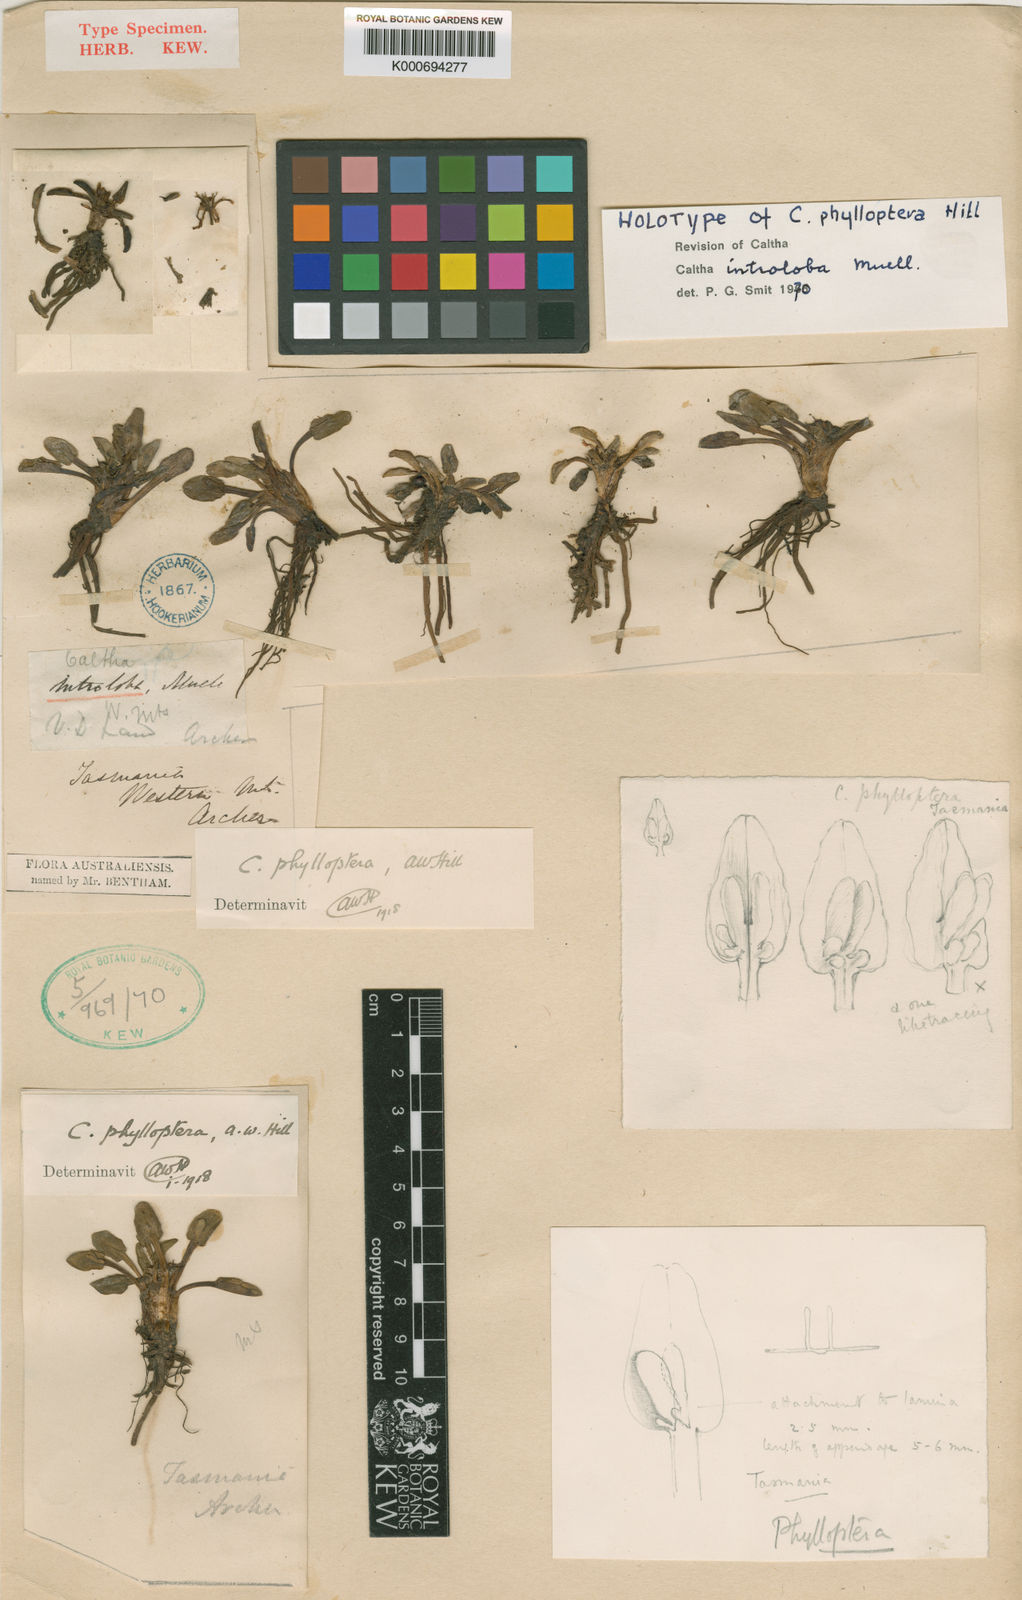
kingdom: Plantae
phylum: Tracheophyta
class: Magnoliopsida
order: Ranunculales
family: Ranunculaceae
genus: Caltha
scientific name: Caltha introloba
